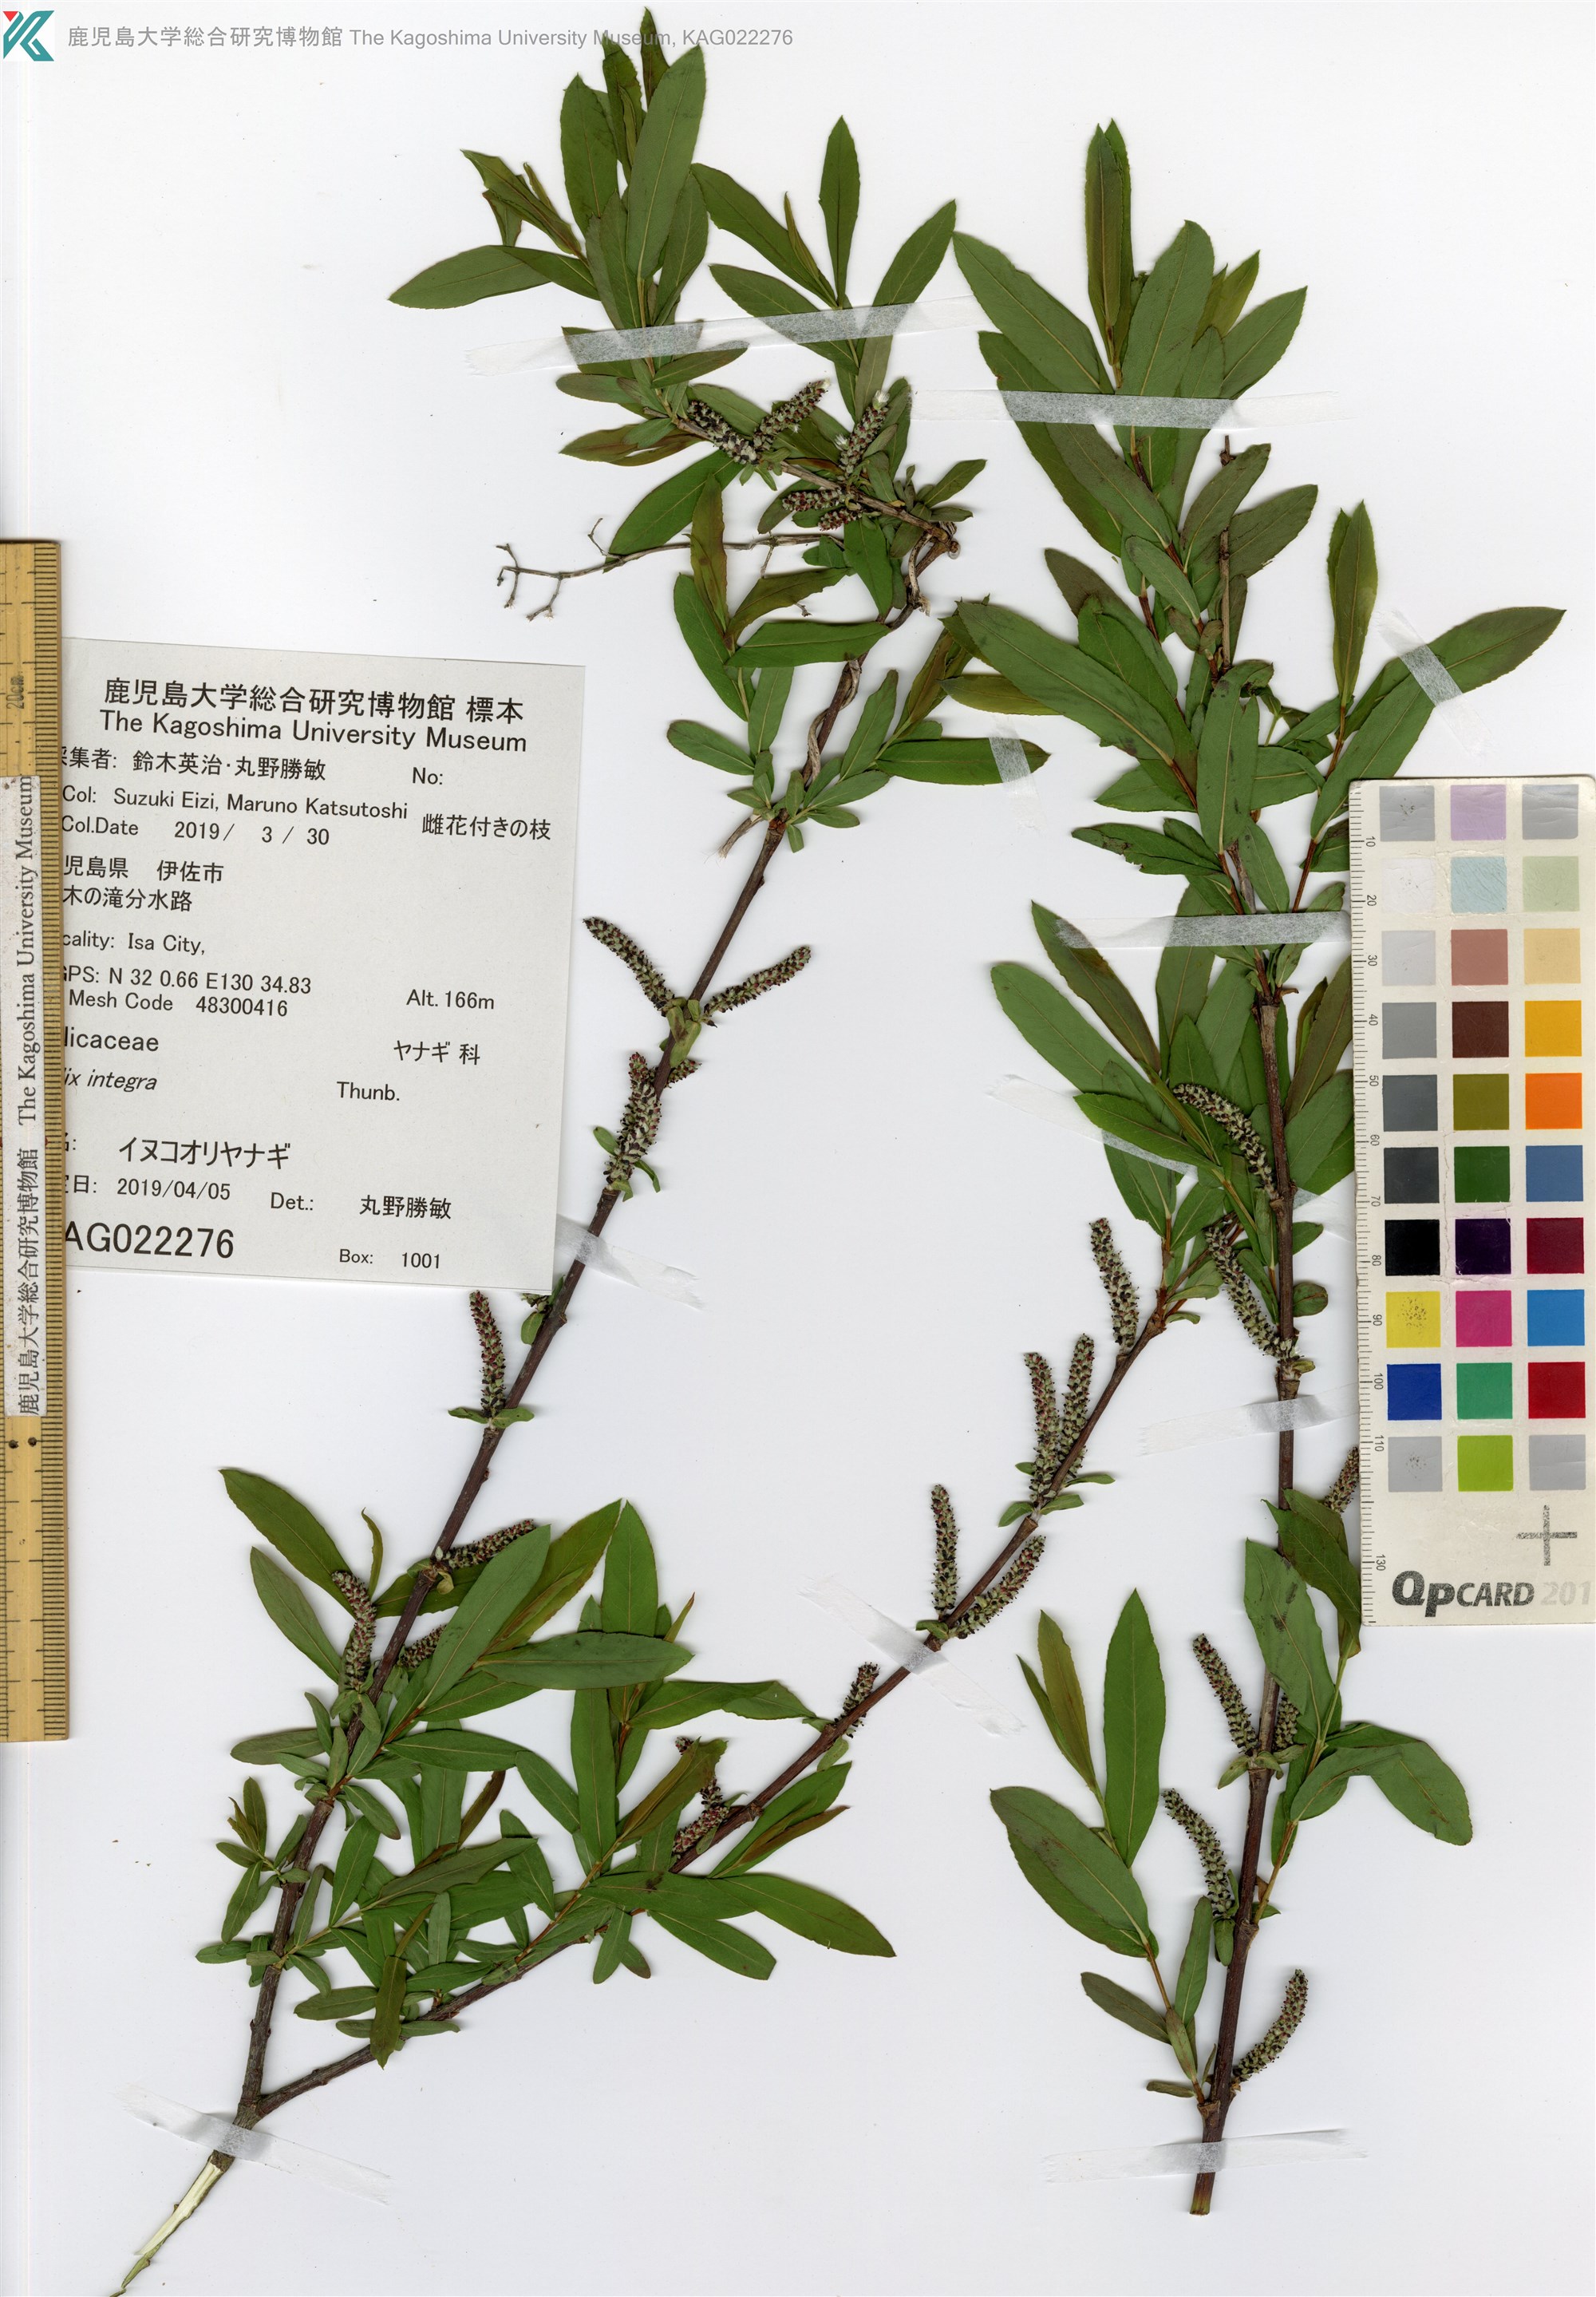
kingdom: Plantae
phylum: Tracheophyta
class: Magnoliopsida
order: Malpighiales
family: Salicaceae
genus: Salix
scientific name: Salix integra
